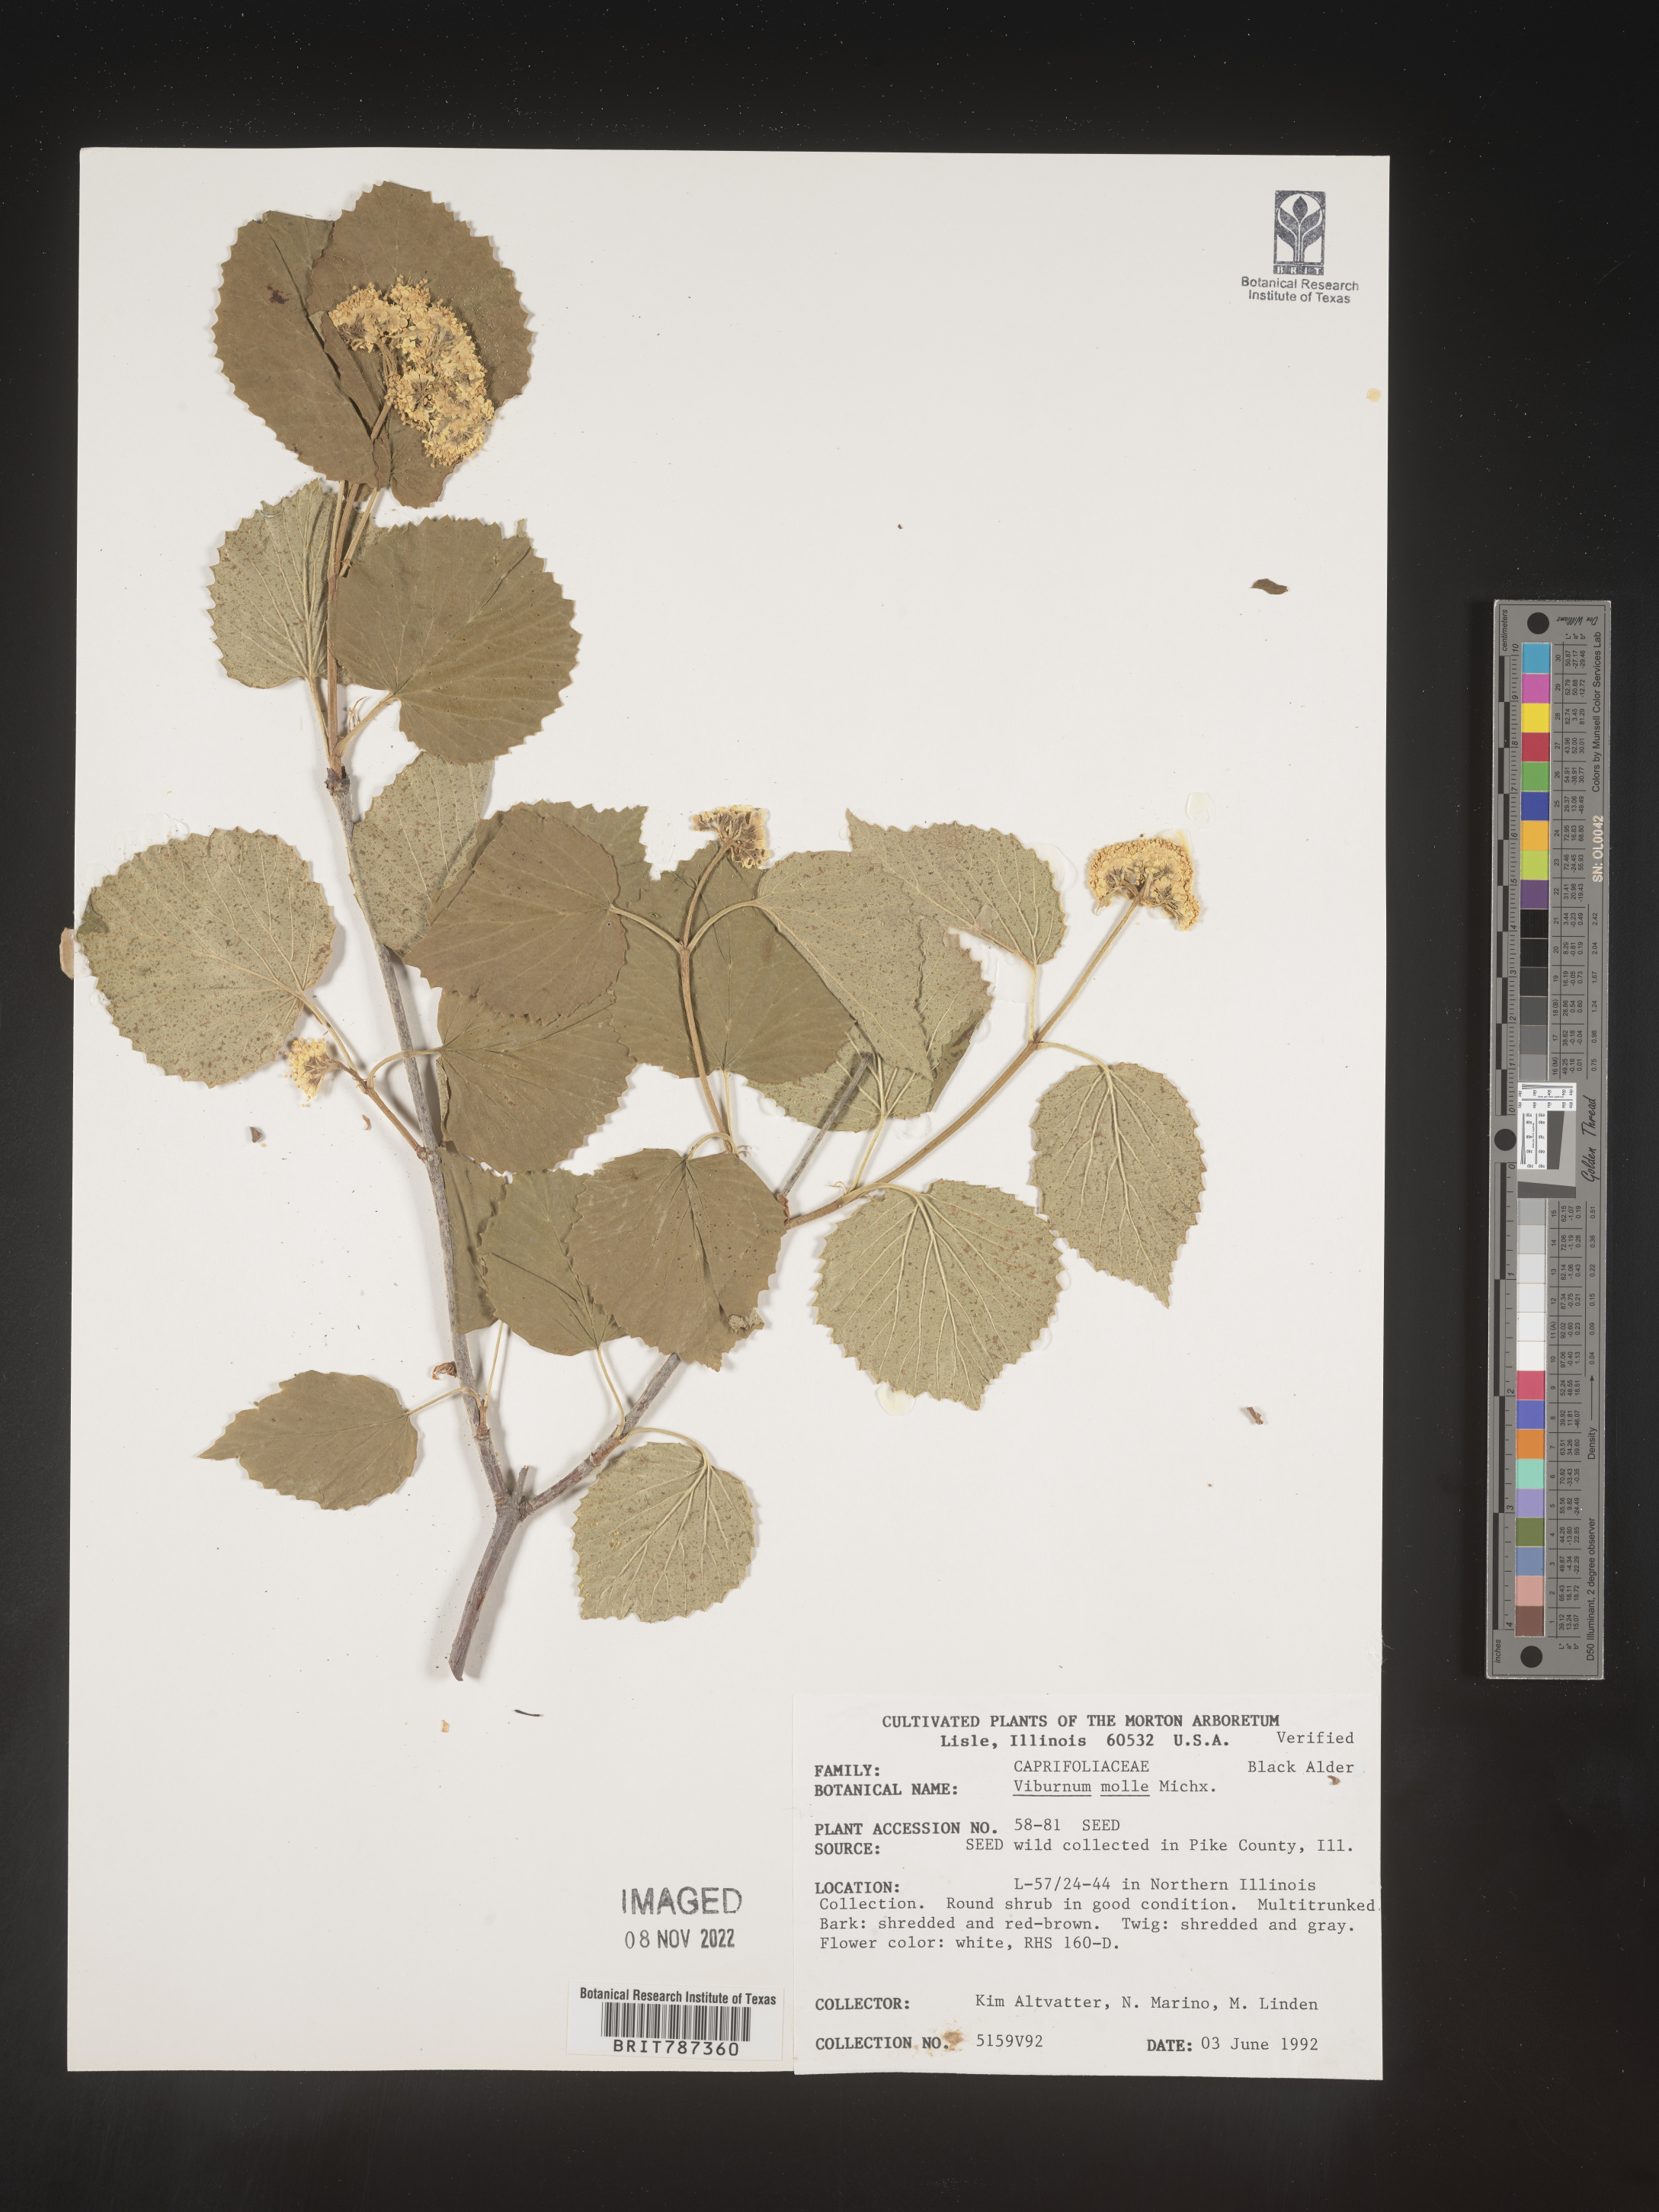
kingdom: Plantae
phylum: Tracheophyta
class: Magnoliopsida
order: Dipsacales
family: Viburnaceae
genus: Viburnum
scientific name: Viburnum
